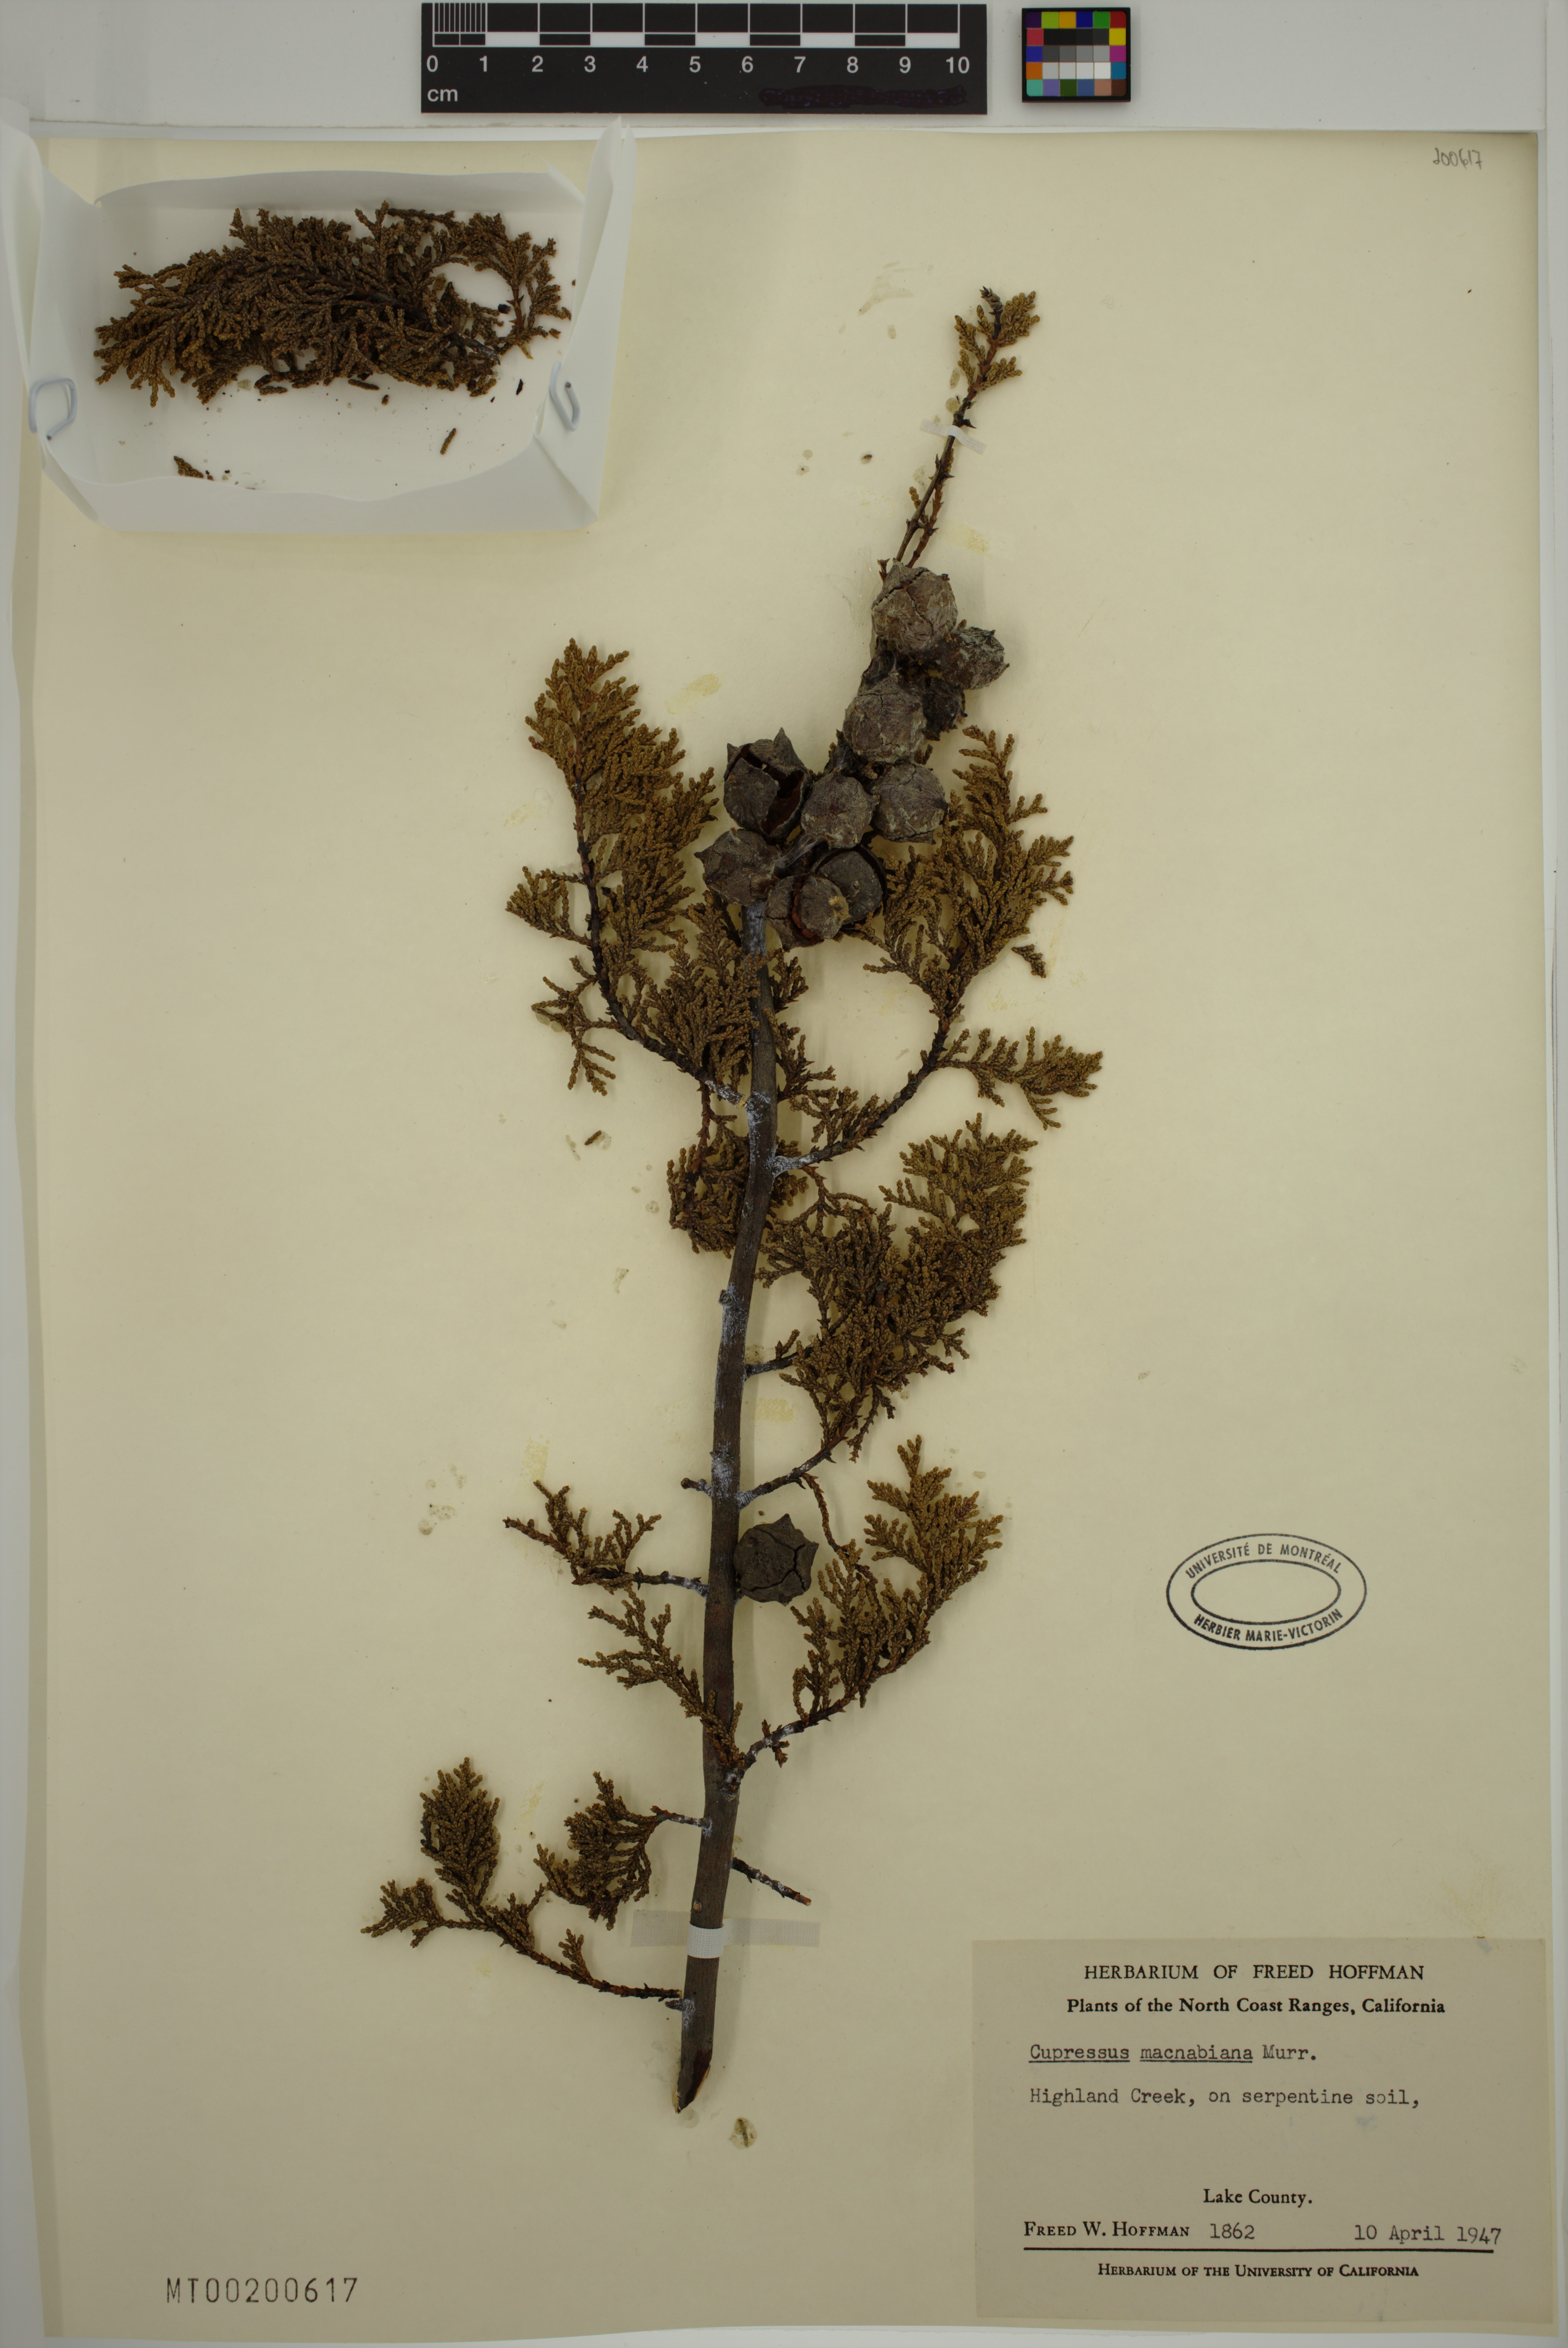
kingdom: Plantae
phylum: Tracheophyta
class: Pinopsida
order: Pinales
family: Cupressaceae
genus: Cupressus
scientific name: Cupressus macnabiana bis
